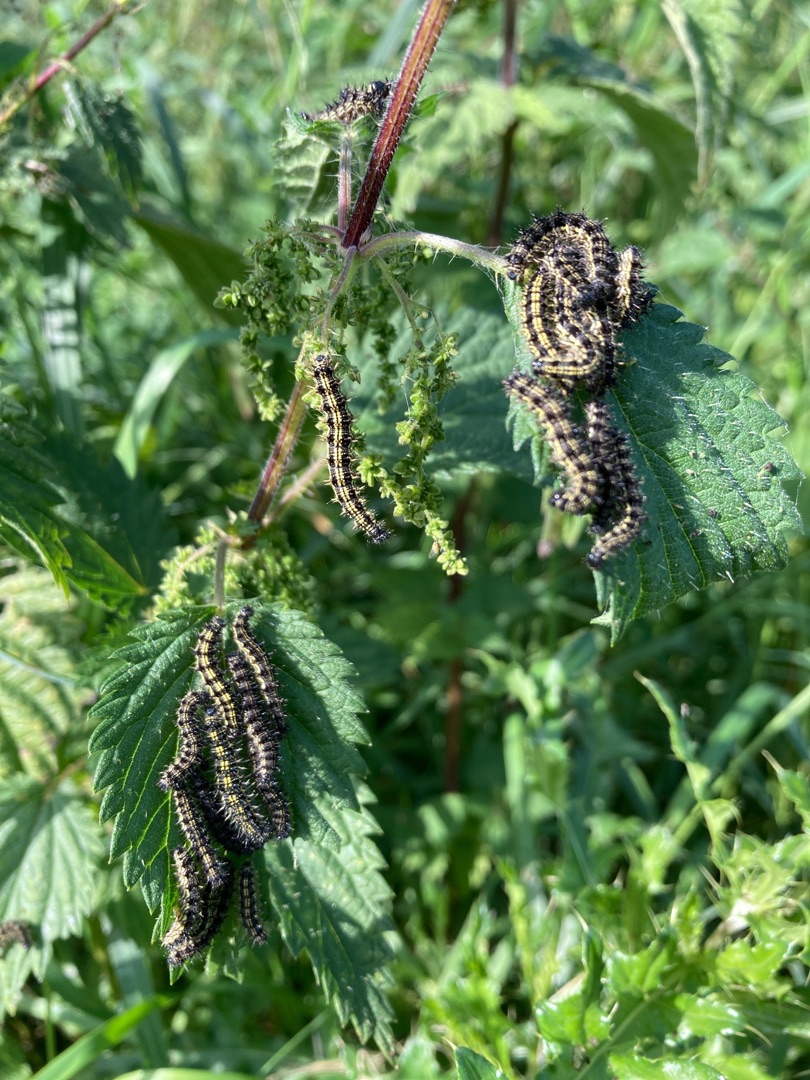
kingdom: Animalia
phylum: Arthropoda
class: Insecta
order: Lepidoptera
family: Nymphalidae
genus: Aglais
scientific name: Aglais urticae
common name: Nældens takvinge
